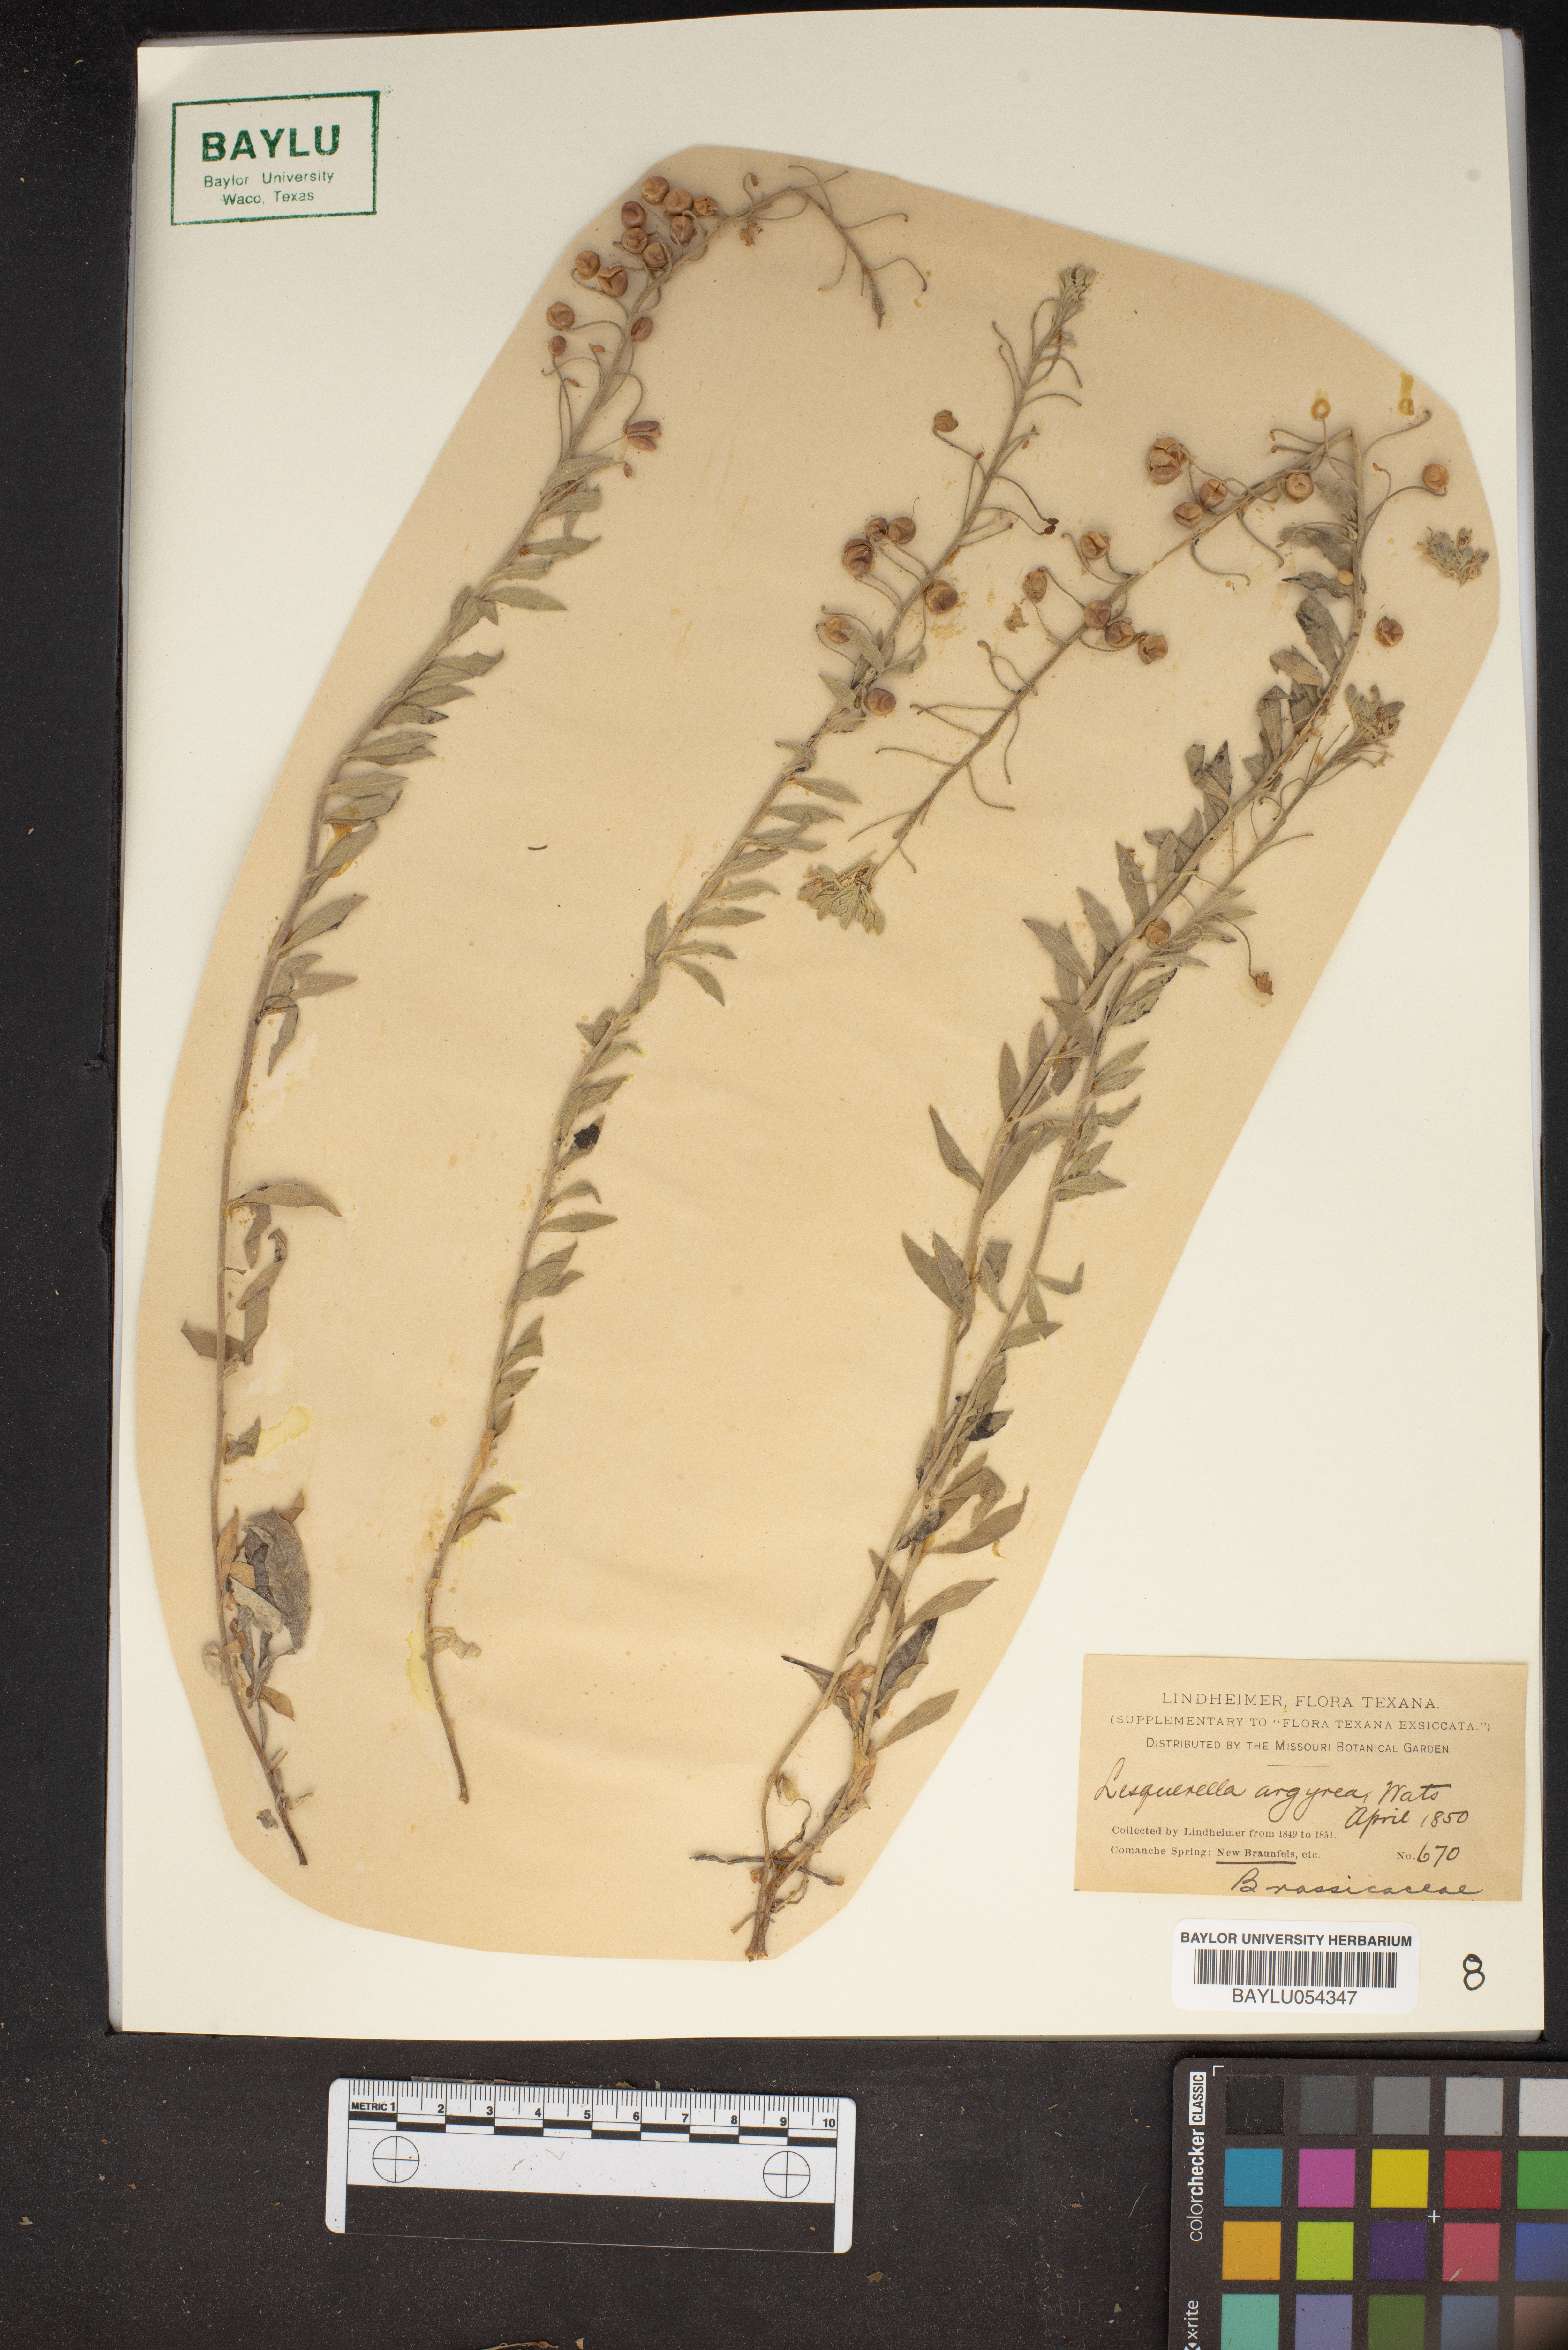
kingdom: Plantae
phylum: Tracheophyta
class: Magnoliopsida
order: Brassicales
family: Brassicaceae
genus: Physaria
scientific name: Physaria argyraea
